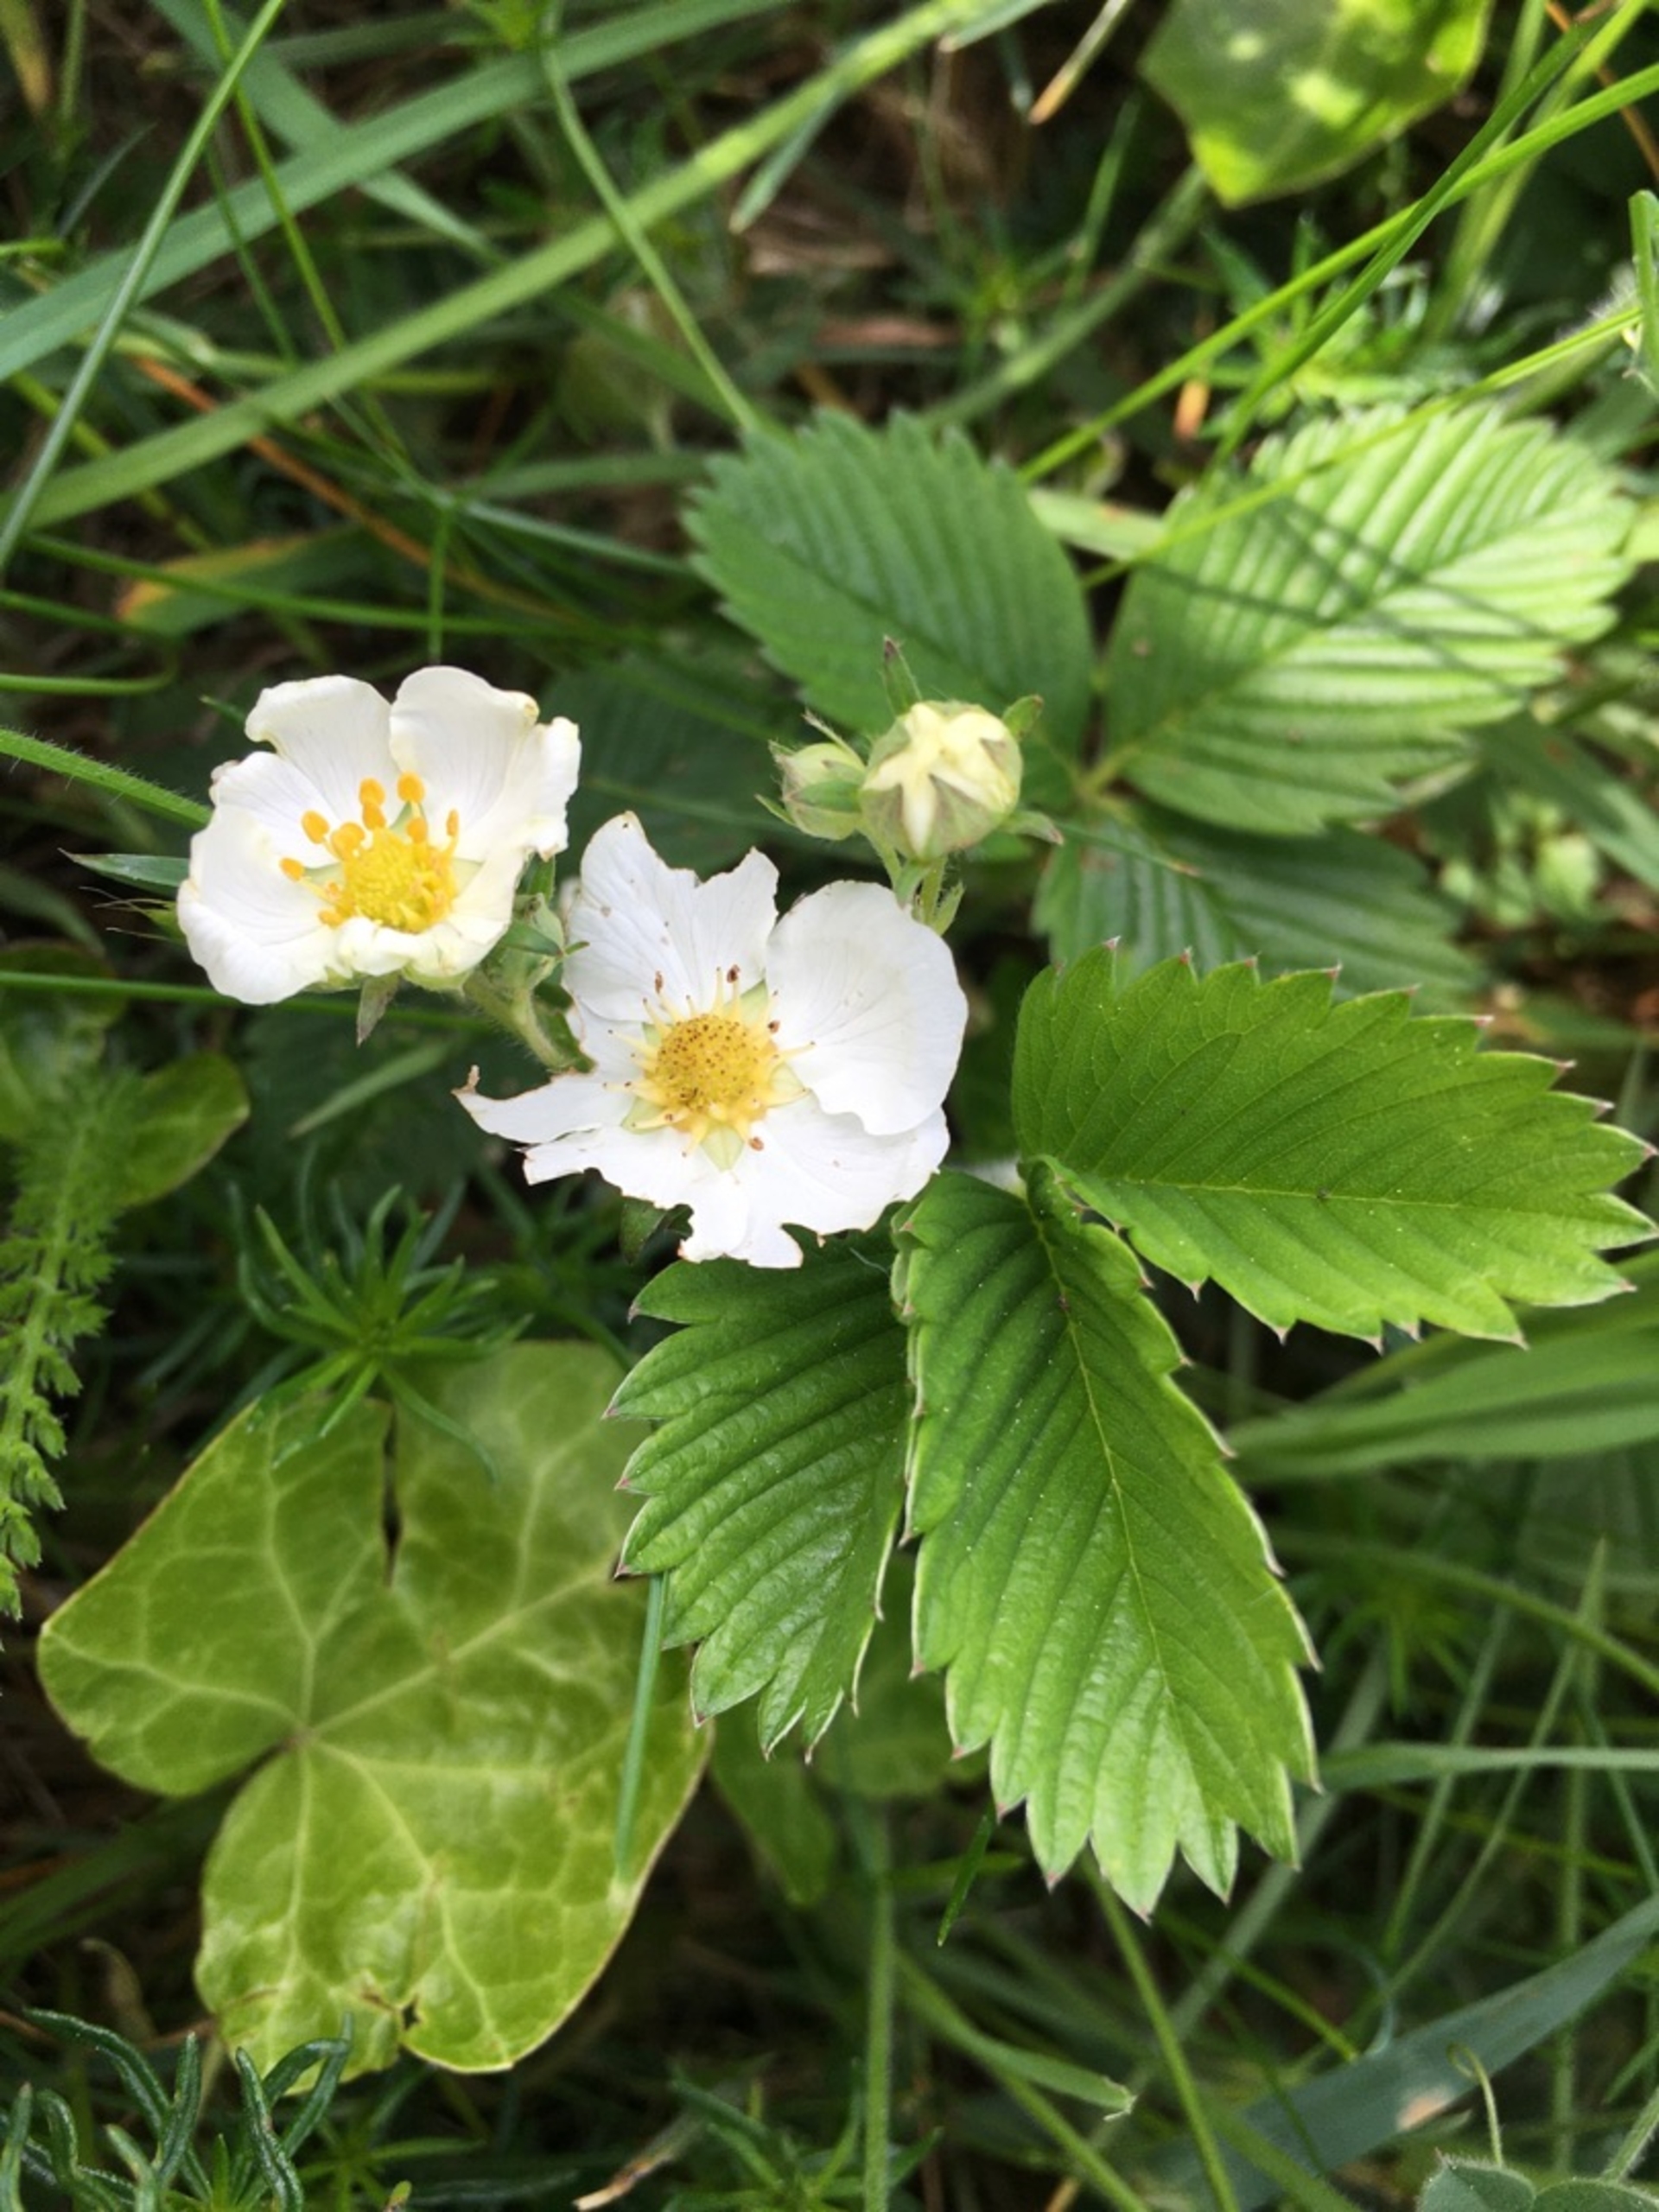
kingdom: Plantae
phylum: Tracheophyta
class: Magnoliopsida
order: Rosales
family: Rosaceae
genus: Fragaria
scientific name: Fragaria viridis
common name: Bakke-jordbær
